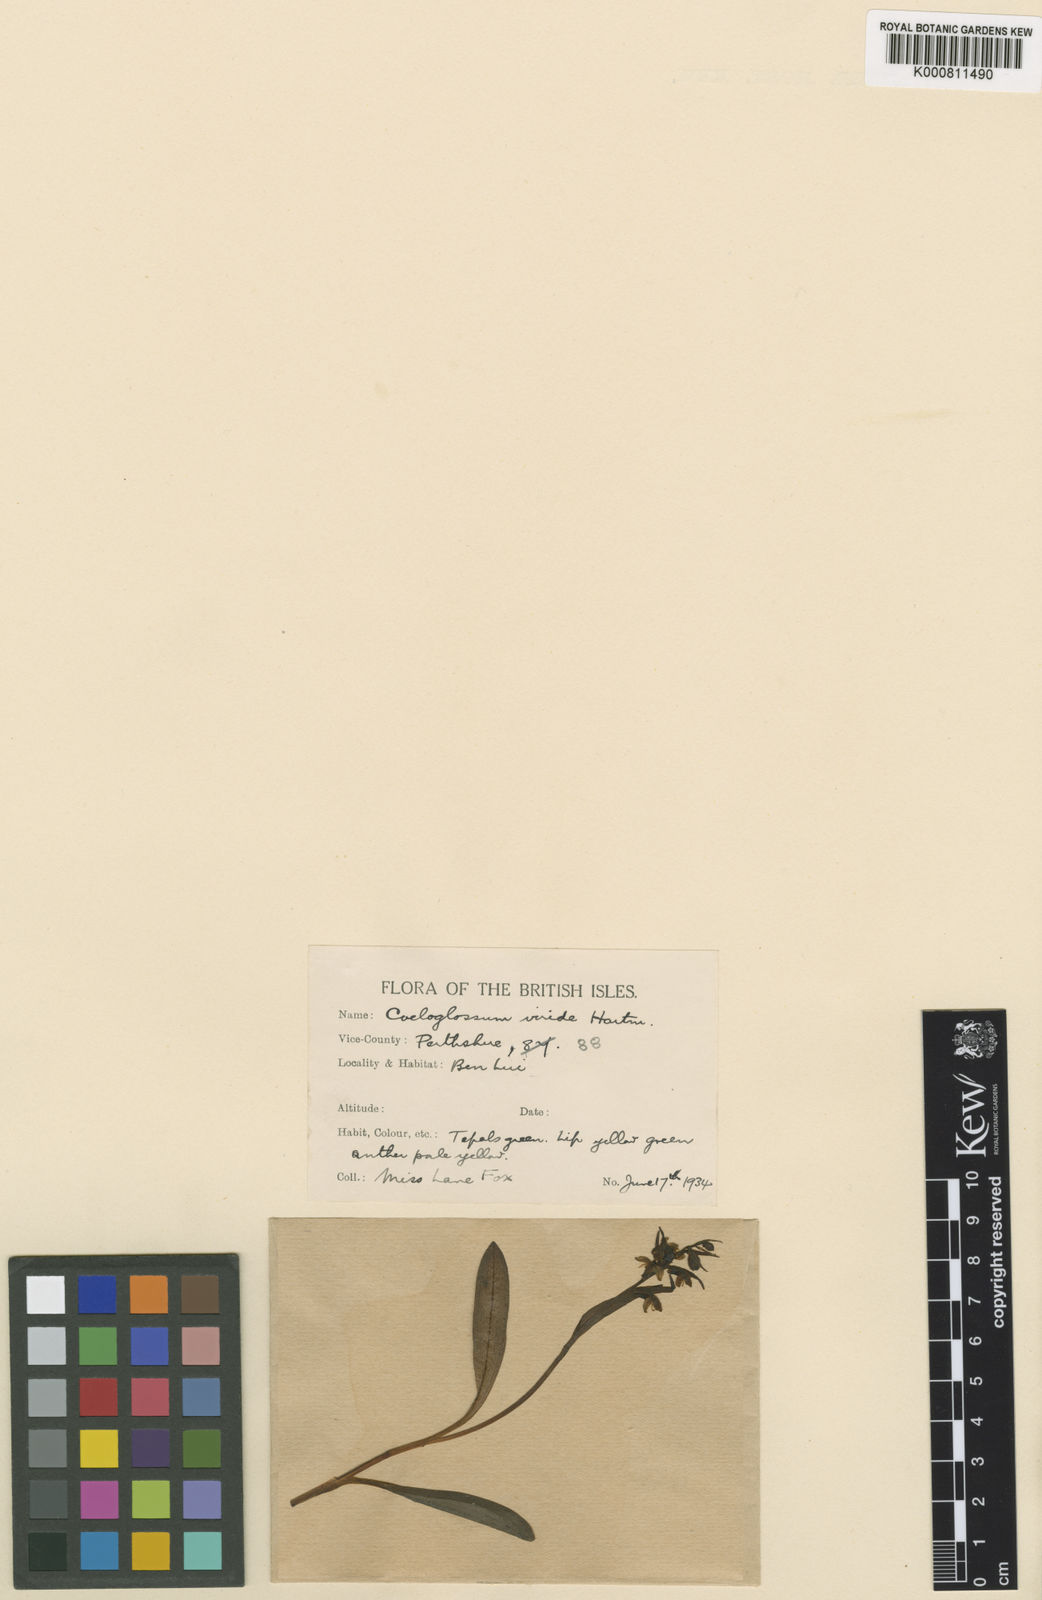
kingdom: Plantae
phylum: Tracheophyta
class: Liliopsida
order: Asparagales
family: Orchidaceae
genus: Dactylorhiza
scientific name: Dactylorhiza viridis
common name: Longbract frog orchid
